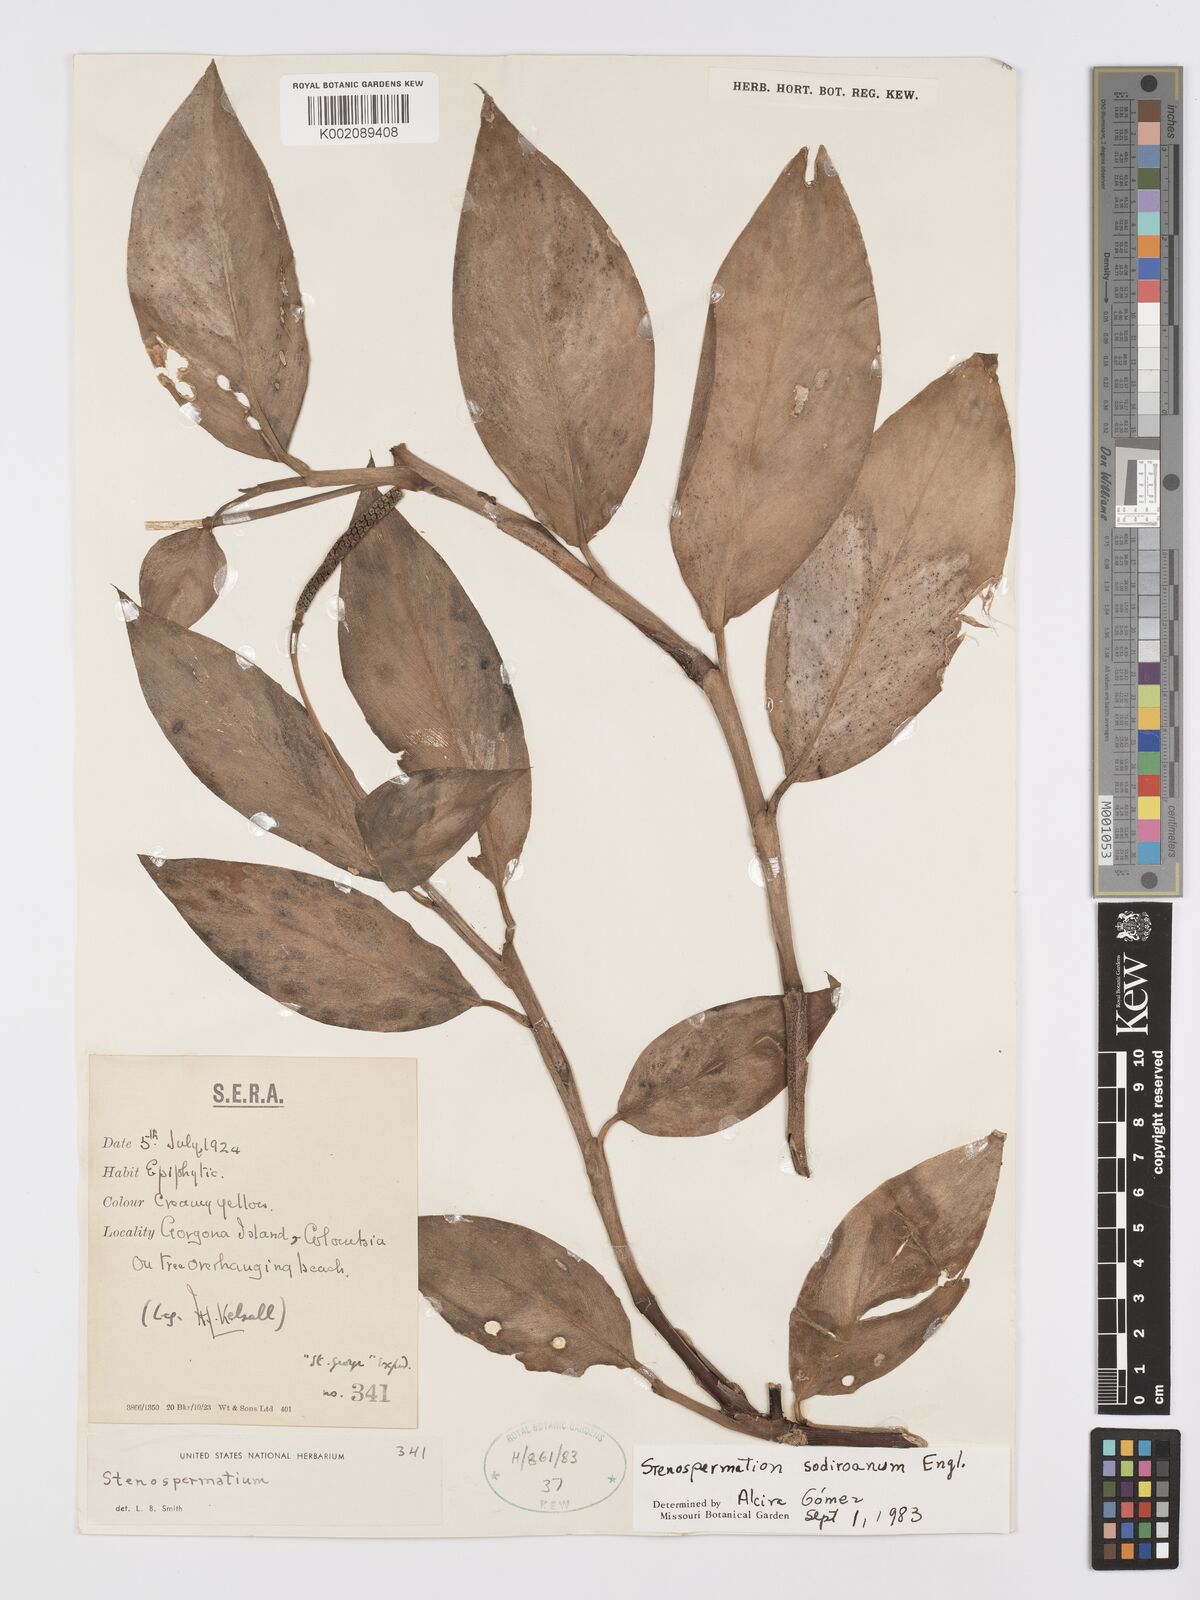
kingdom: Plantae
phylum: Tracheophyta
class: Liliopsida
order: Alismatales
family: Araceae
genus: Stenospermation
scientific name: Stenospermation longipetiolatum
